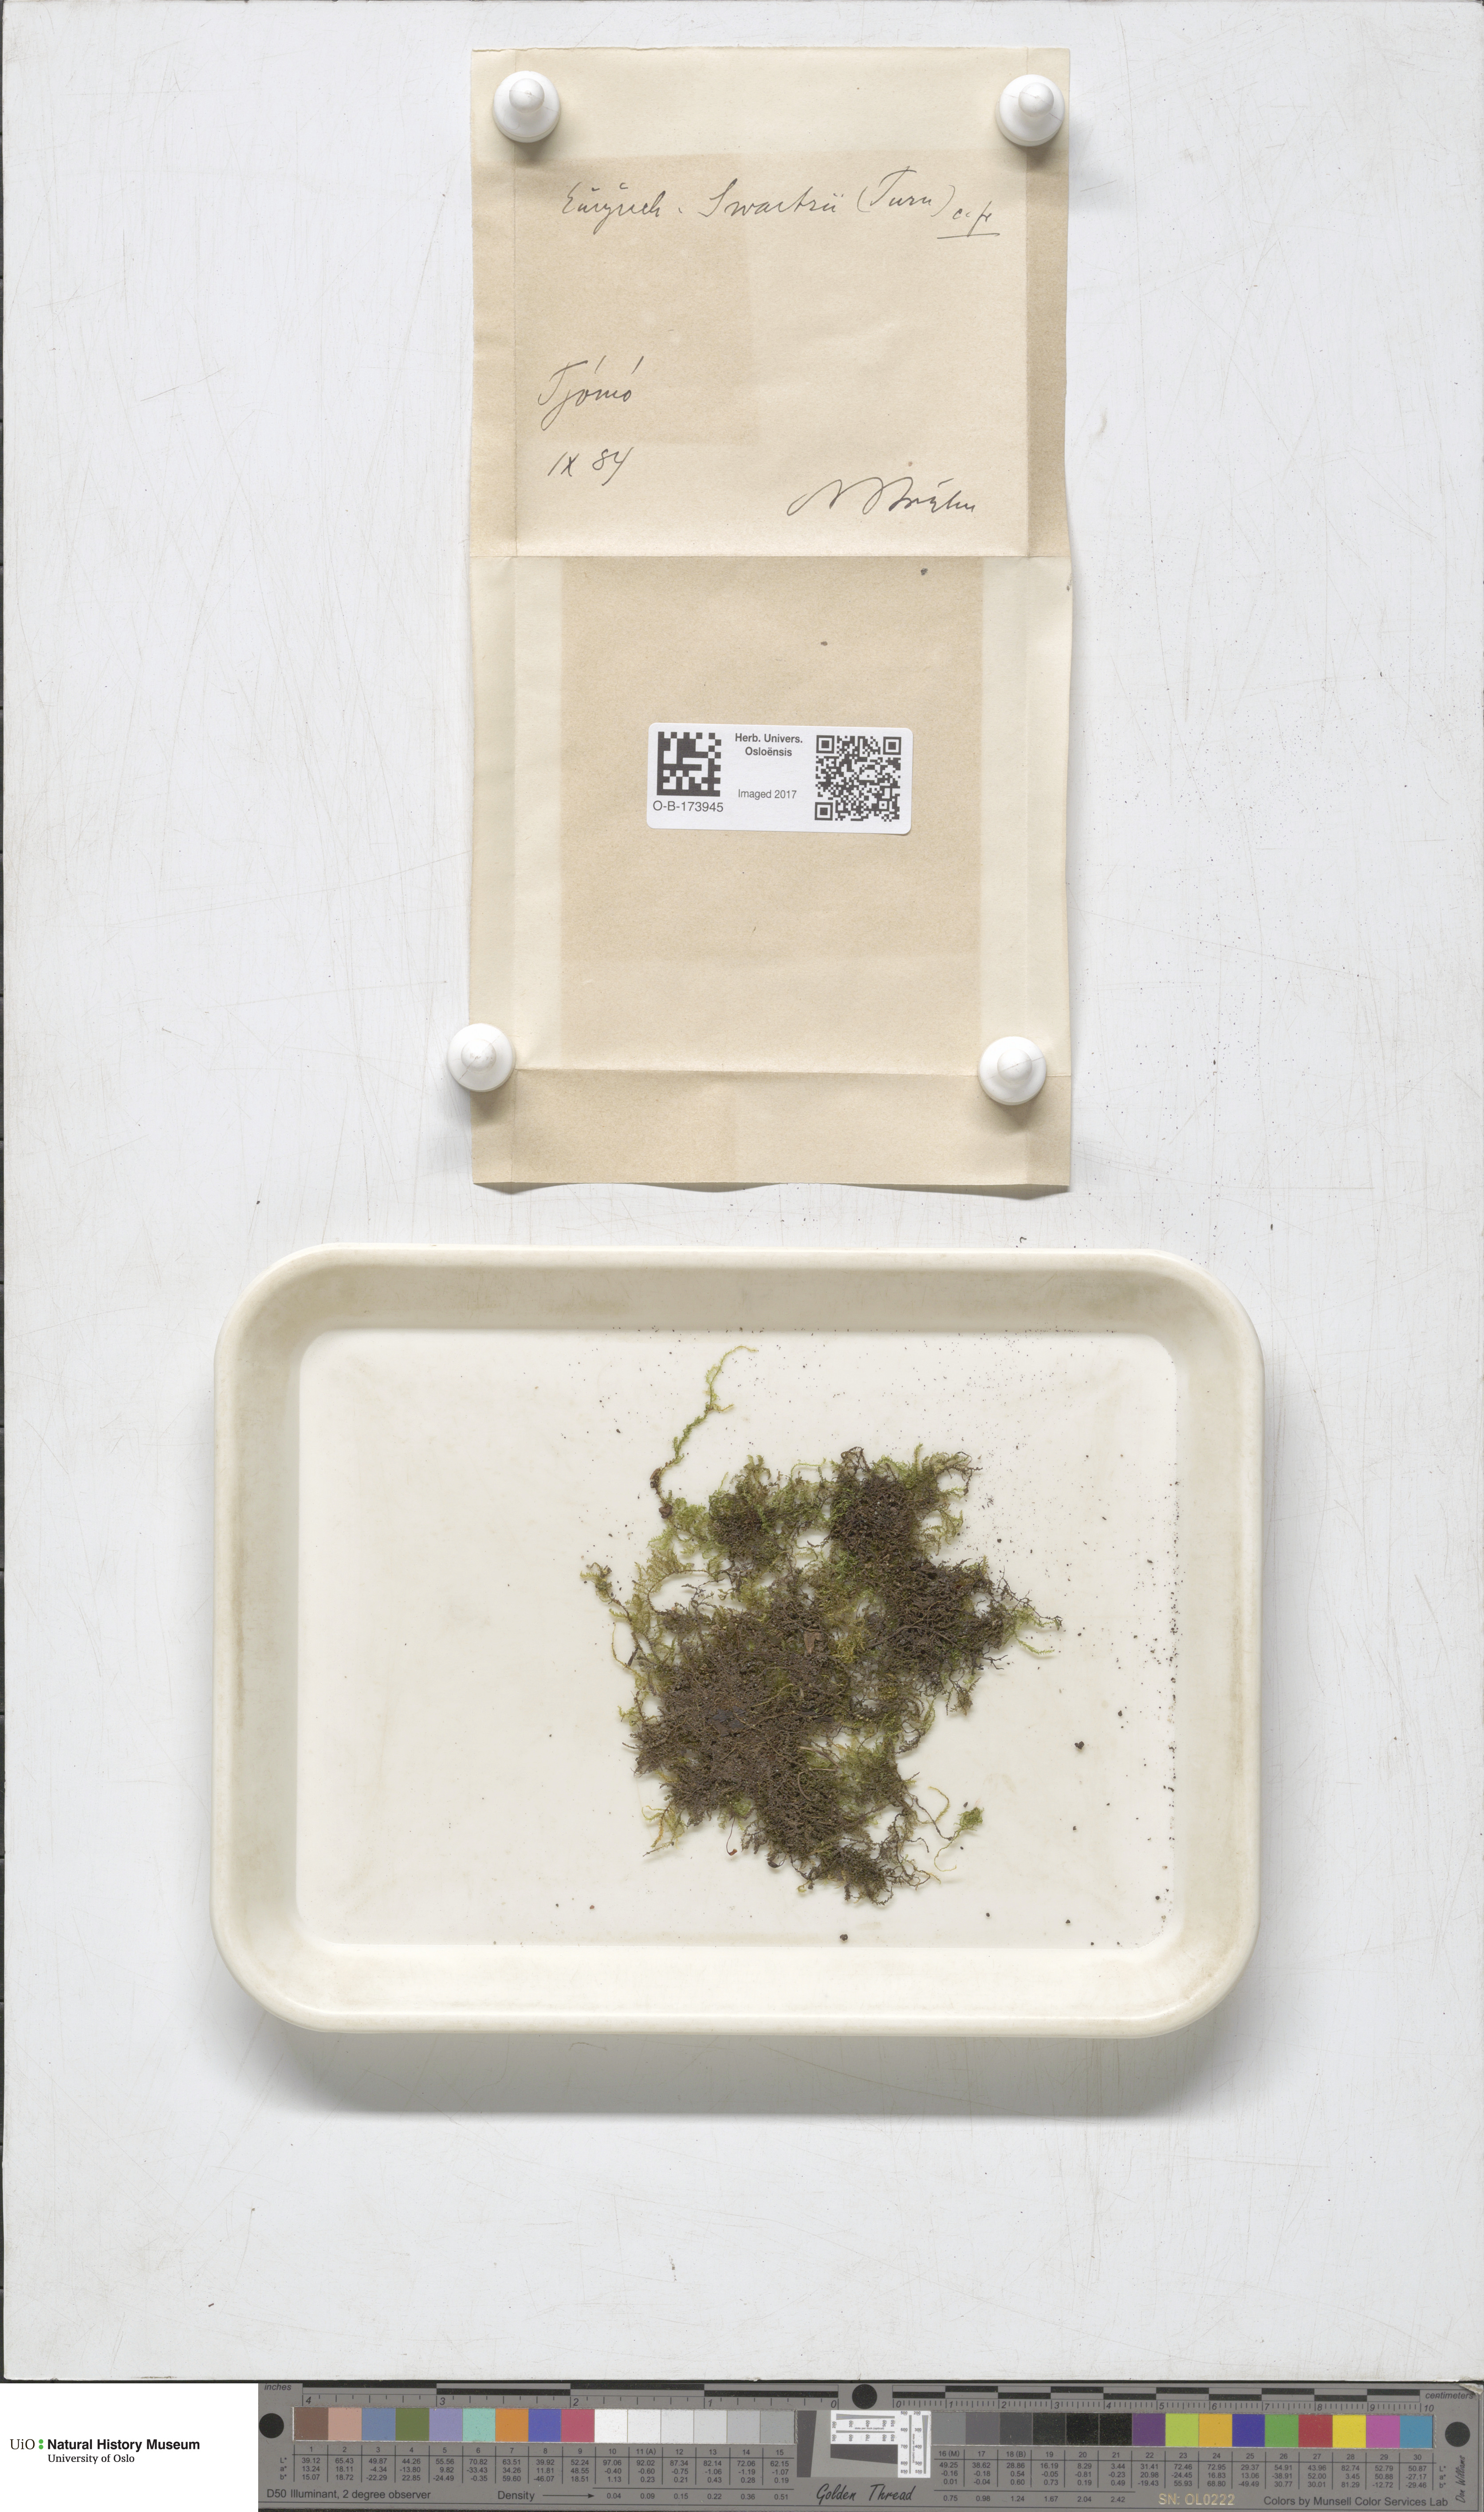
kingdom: Plantae
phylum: Bryophyta
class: Bryopsida
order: Hypnales
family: Brachytheciaceae
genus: Oxyrrhynchium
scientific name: Oxyrrhynchium hians
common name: Spreading beaked moss
